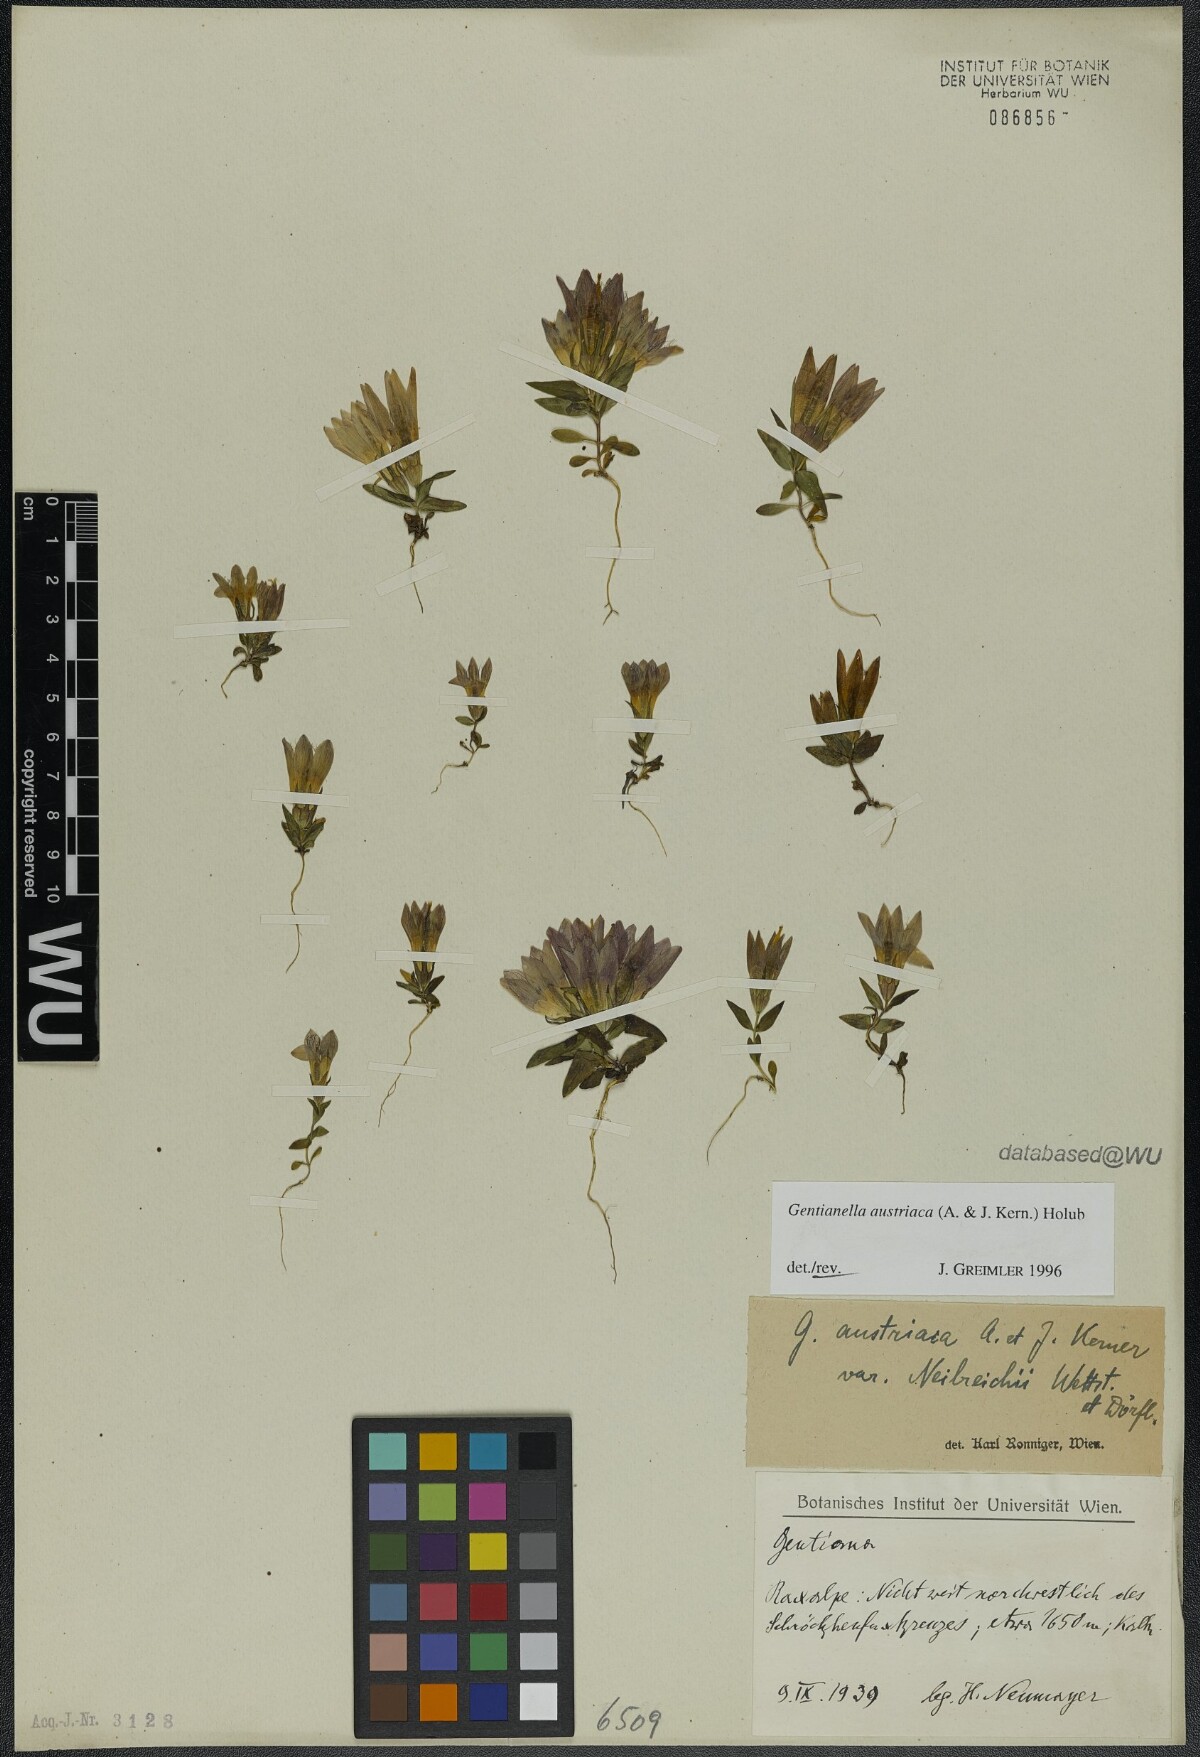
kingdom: Plantae
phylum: Tracheophyta
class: Magnoliopsida
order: Gentianales
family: Gentianaceae
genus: Gentianella
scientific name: Gentianella austriaca
